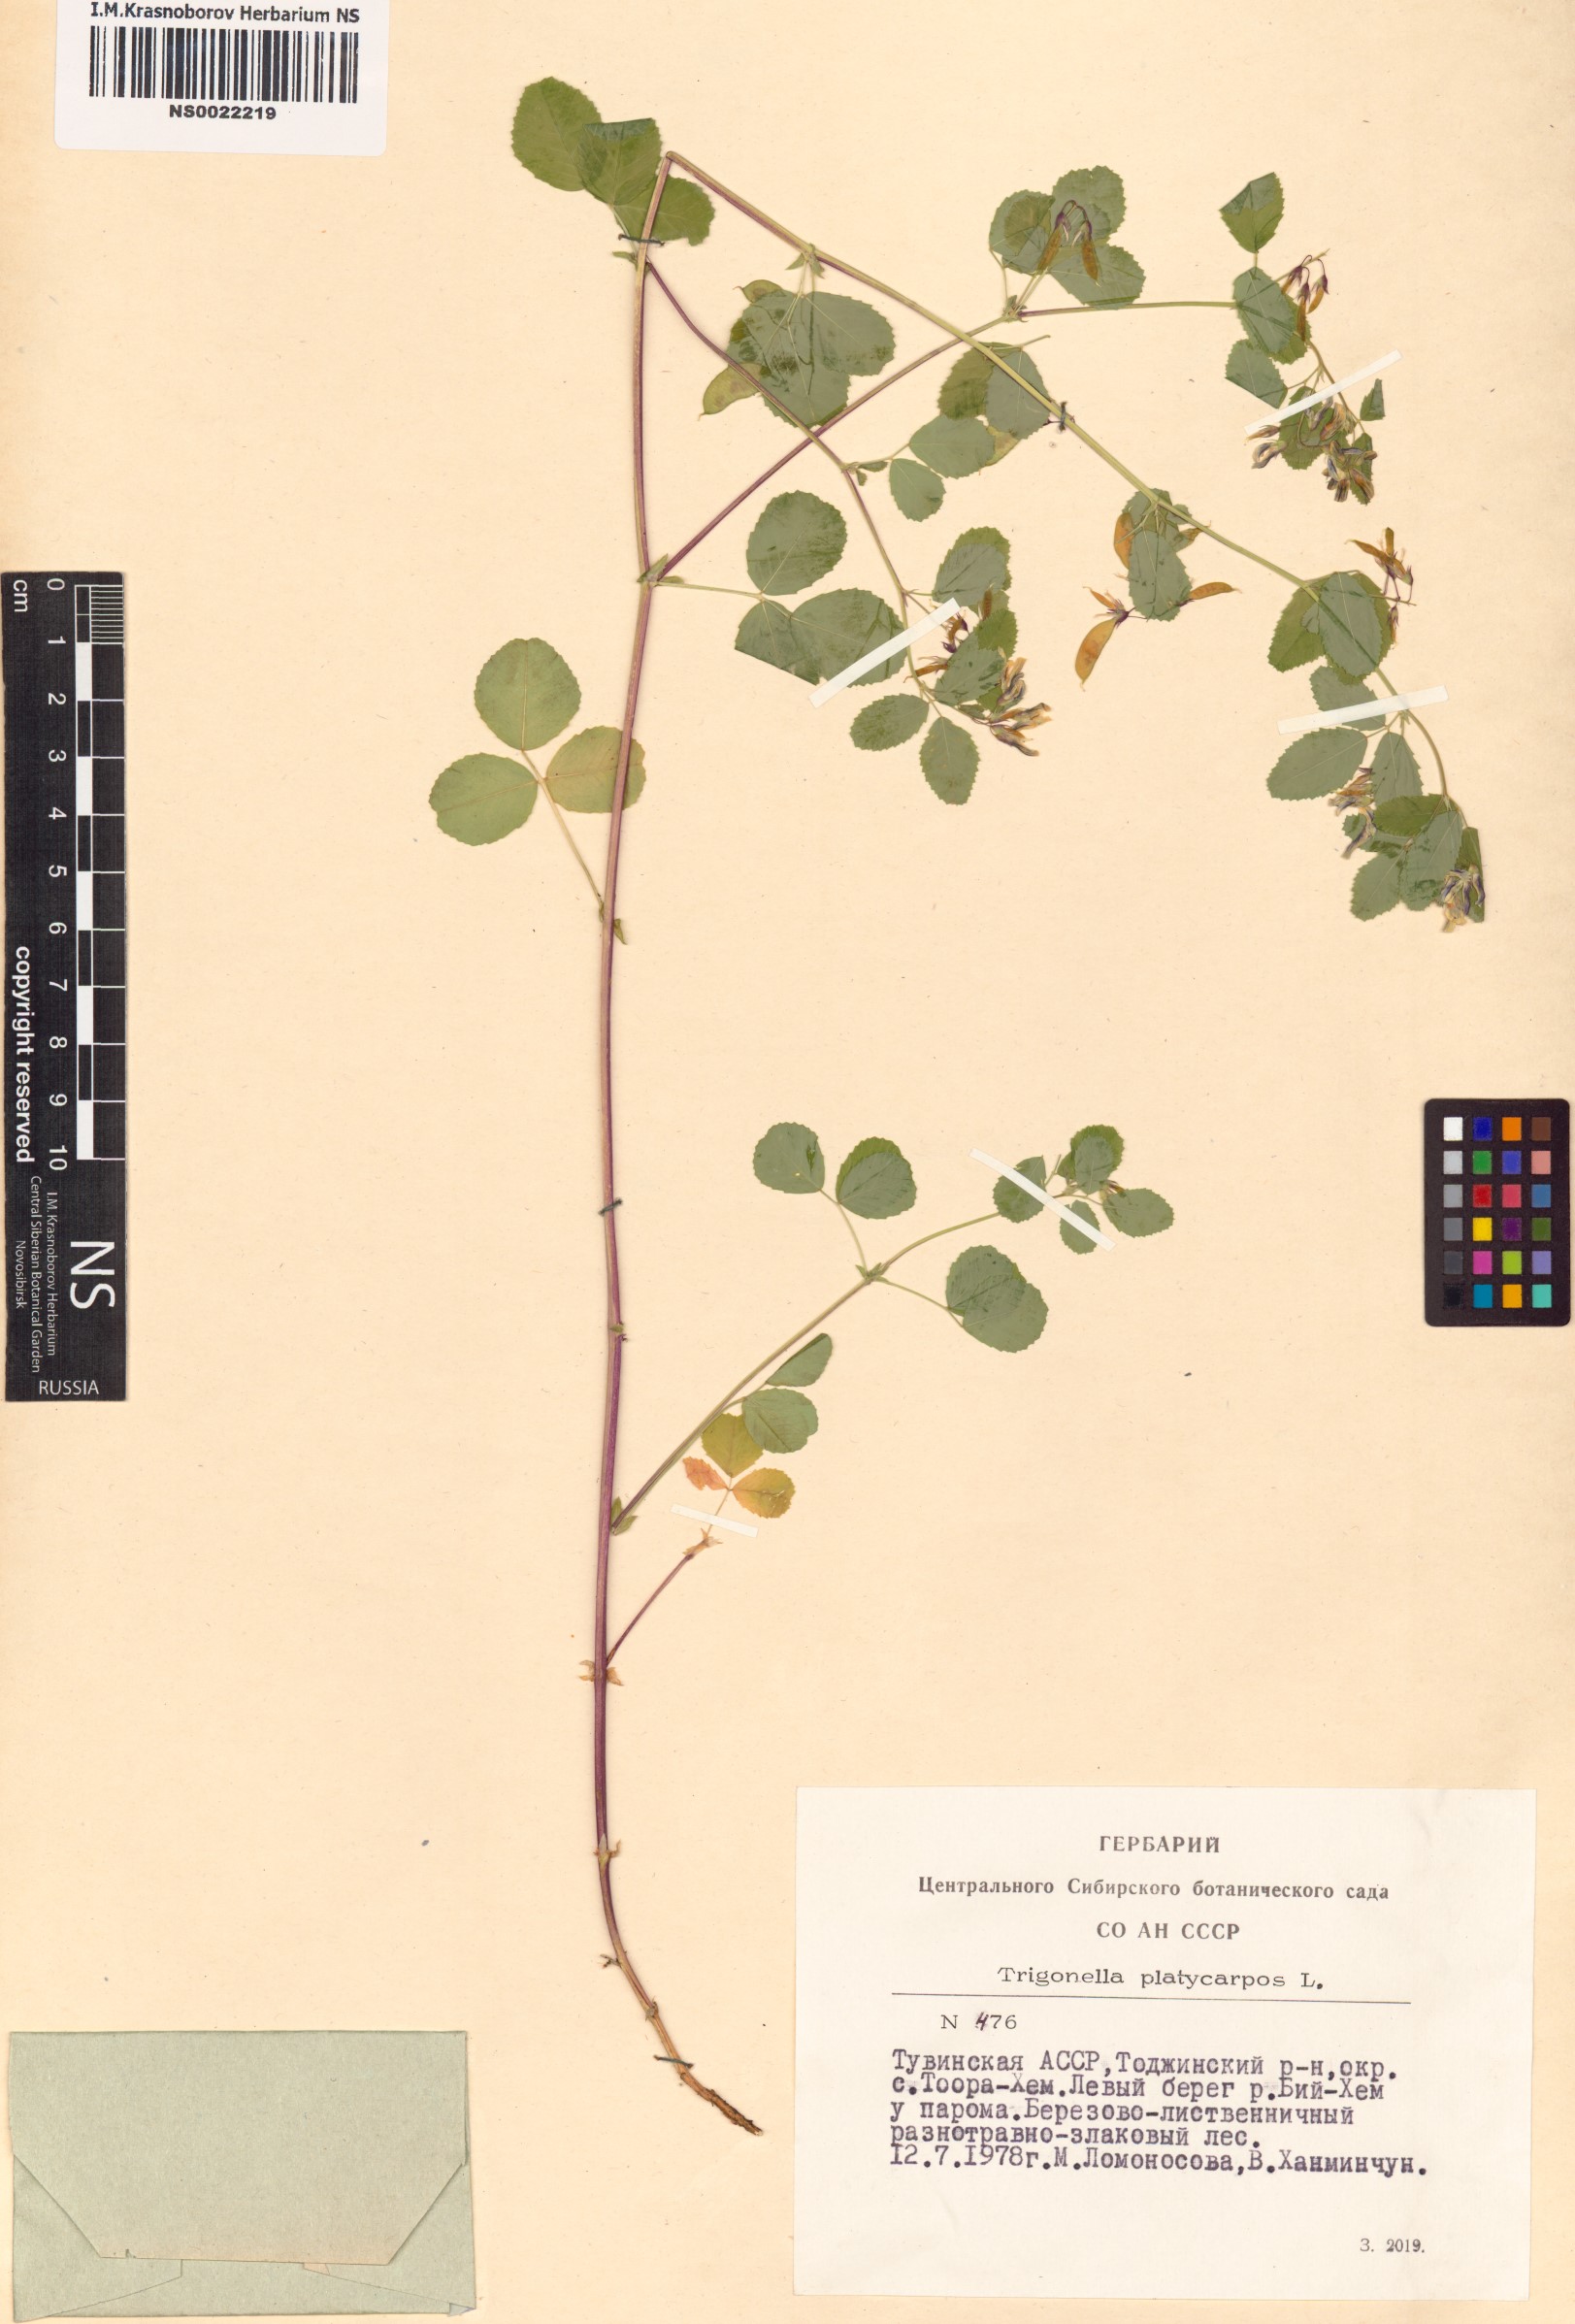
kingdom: Plantae
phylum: Tracheophyta
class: Magnoliopsida
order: Fabales
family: Fabaceae
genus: Medicago
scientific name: Medicago platycarpos
